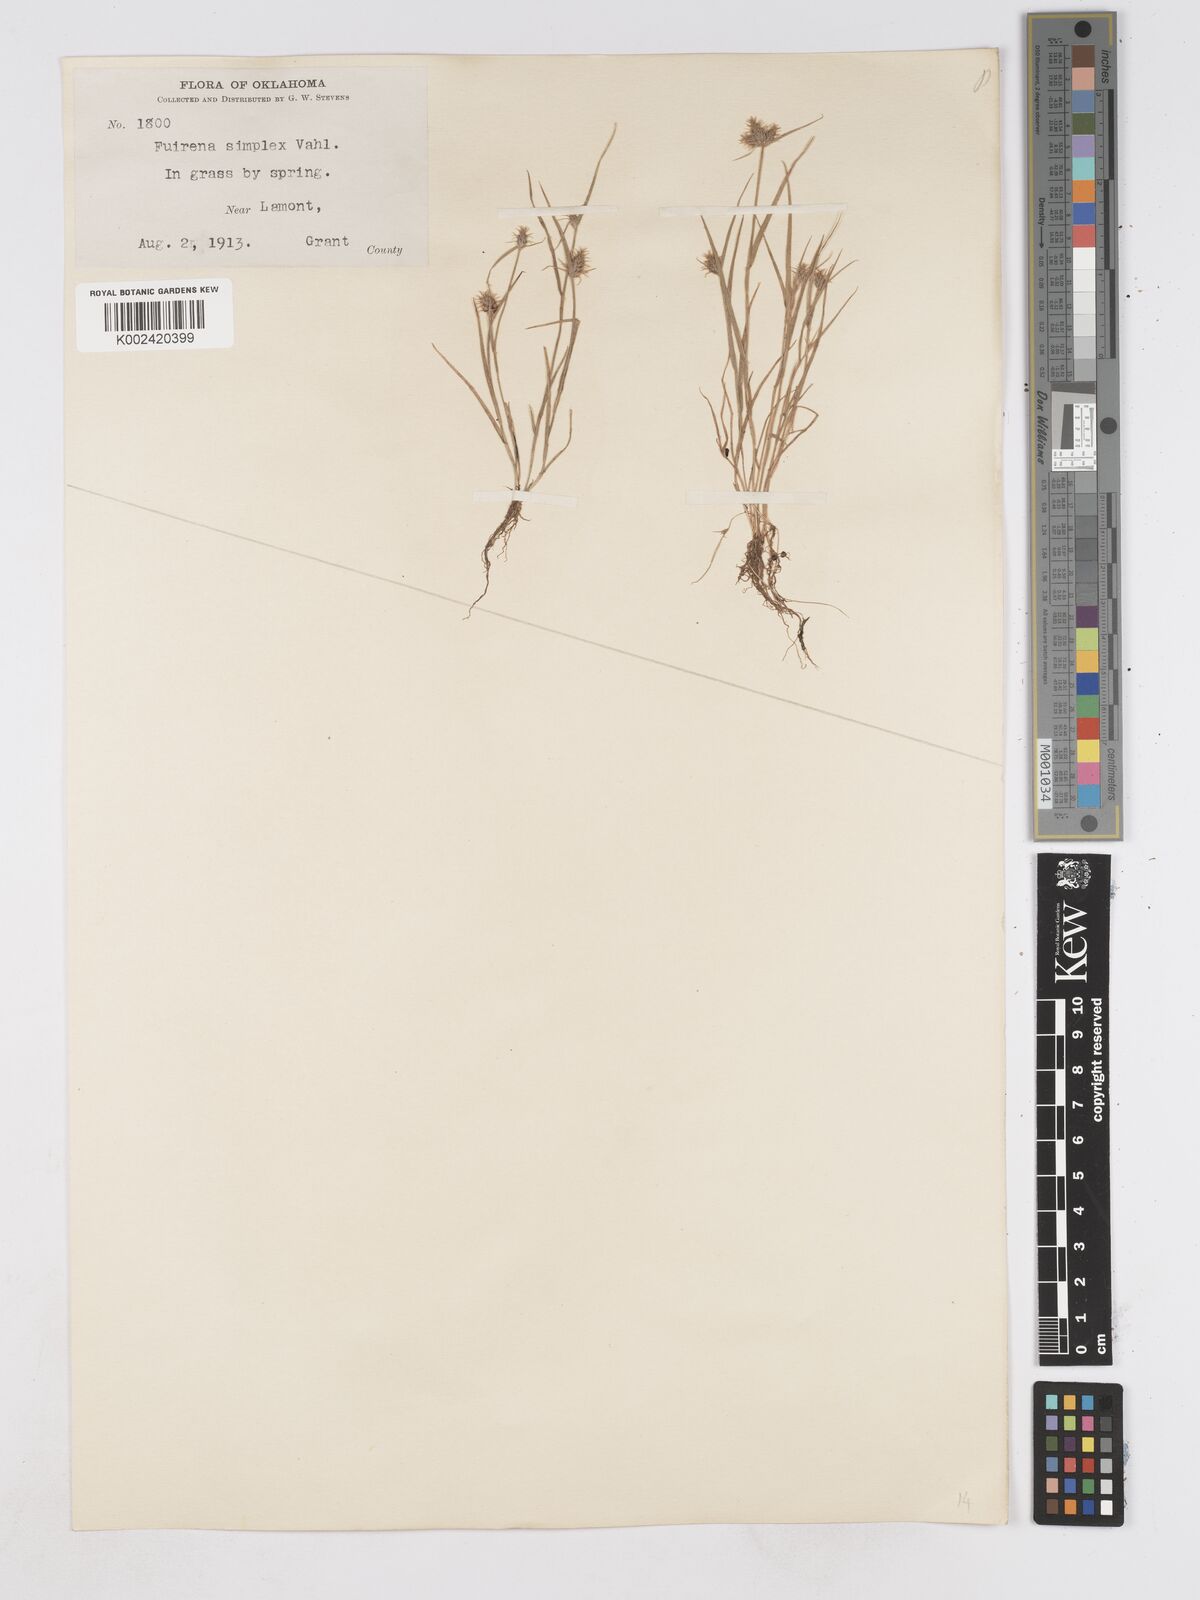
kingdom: Plantae
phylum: Tracheophyta
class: Liliopsida
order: Poales
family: Cyperaceae
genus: Fuirena
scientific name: Fuirena simplex
